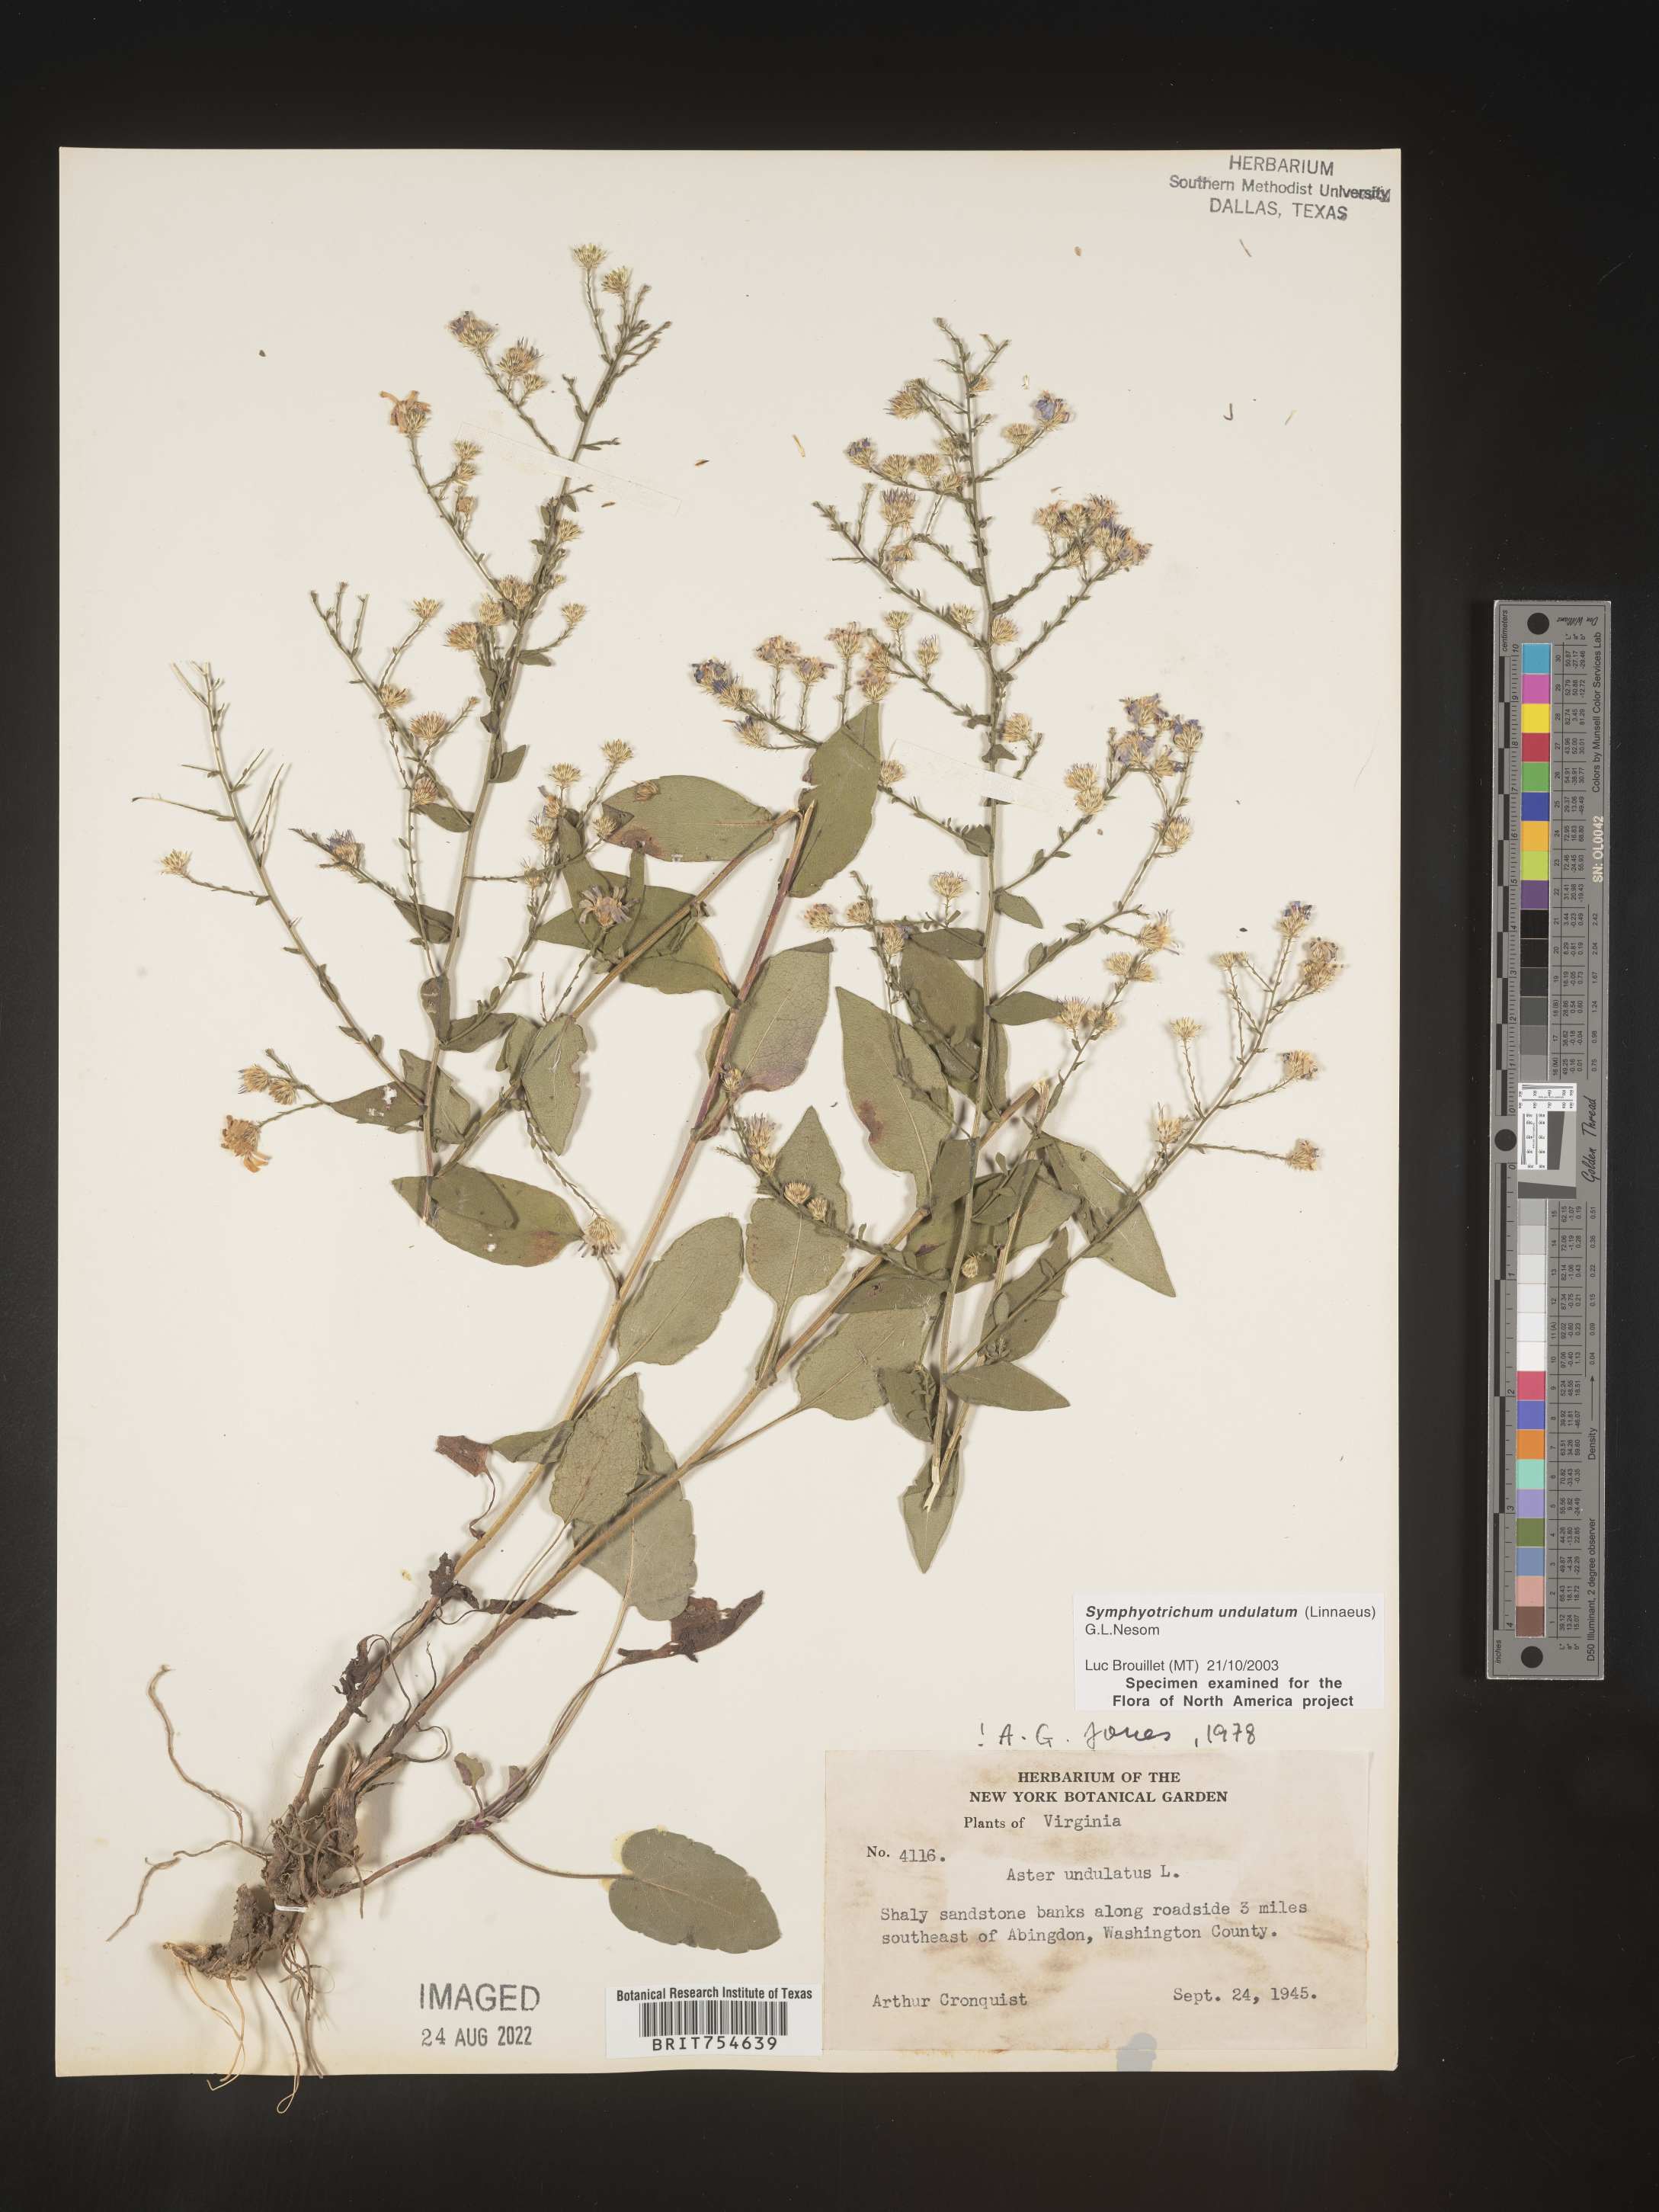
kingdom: Plantae
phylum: Tracheophyta
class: Magnoliopsida
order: Asterales
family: Asteraceae
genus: Symphyotrichum
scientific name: Symphyotrichum undulatum
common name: Clasping heart-leaf aster
